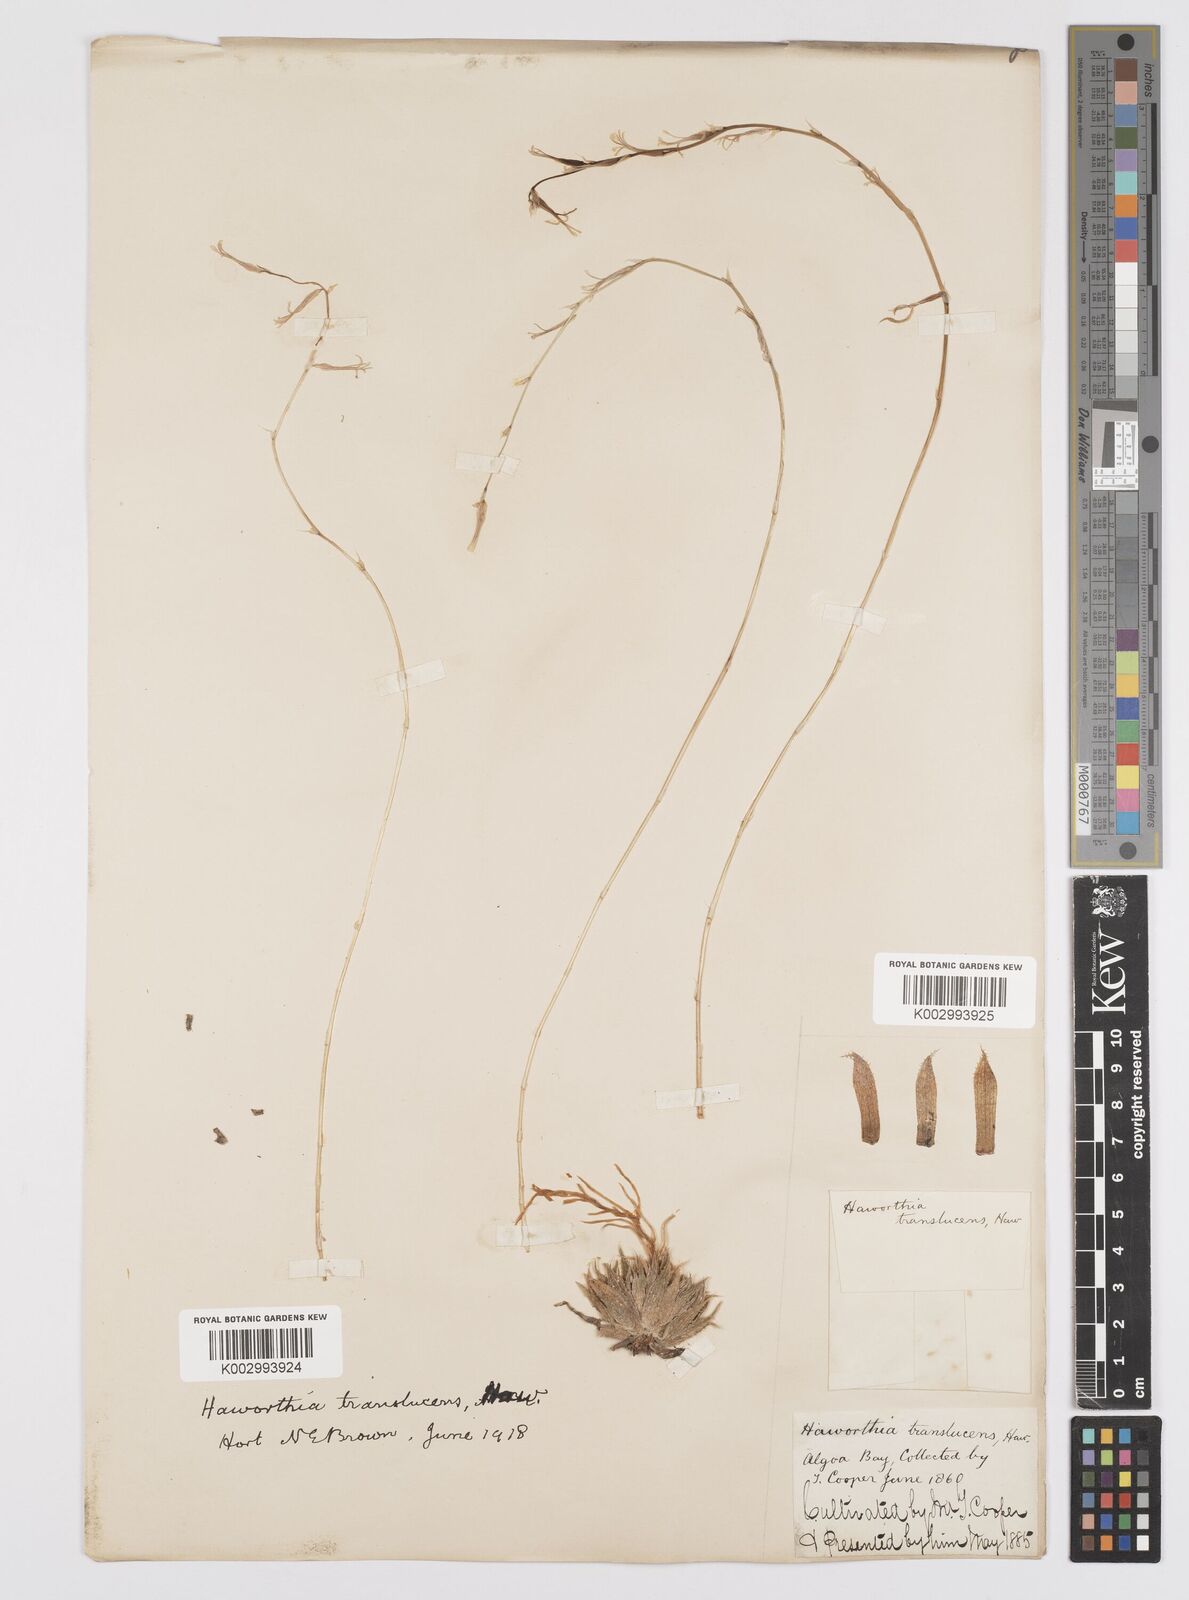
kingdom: Plantae
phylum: Tracheophyta
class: Liliopsida
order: Asparagales
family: Asphodelaceae
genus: Haworthia
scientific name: Haworthia herbacea
